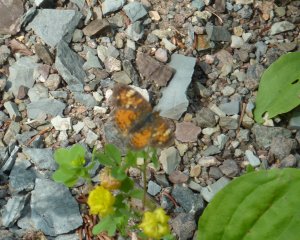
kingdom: Animalia
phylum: Arthropoda
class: Insecta
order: Lepidoptera
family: Nymphalidae
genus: Phyciodes
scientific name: Phyciodes tharos
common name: Northern Crescent
